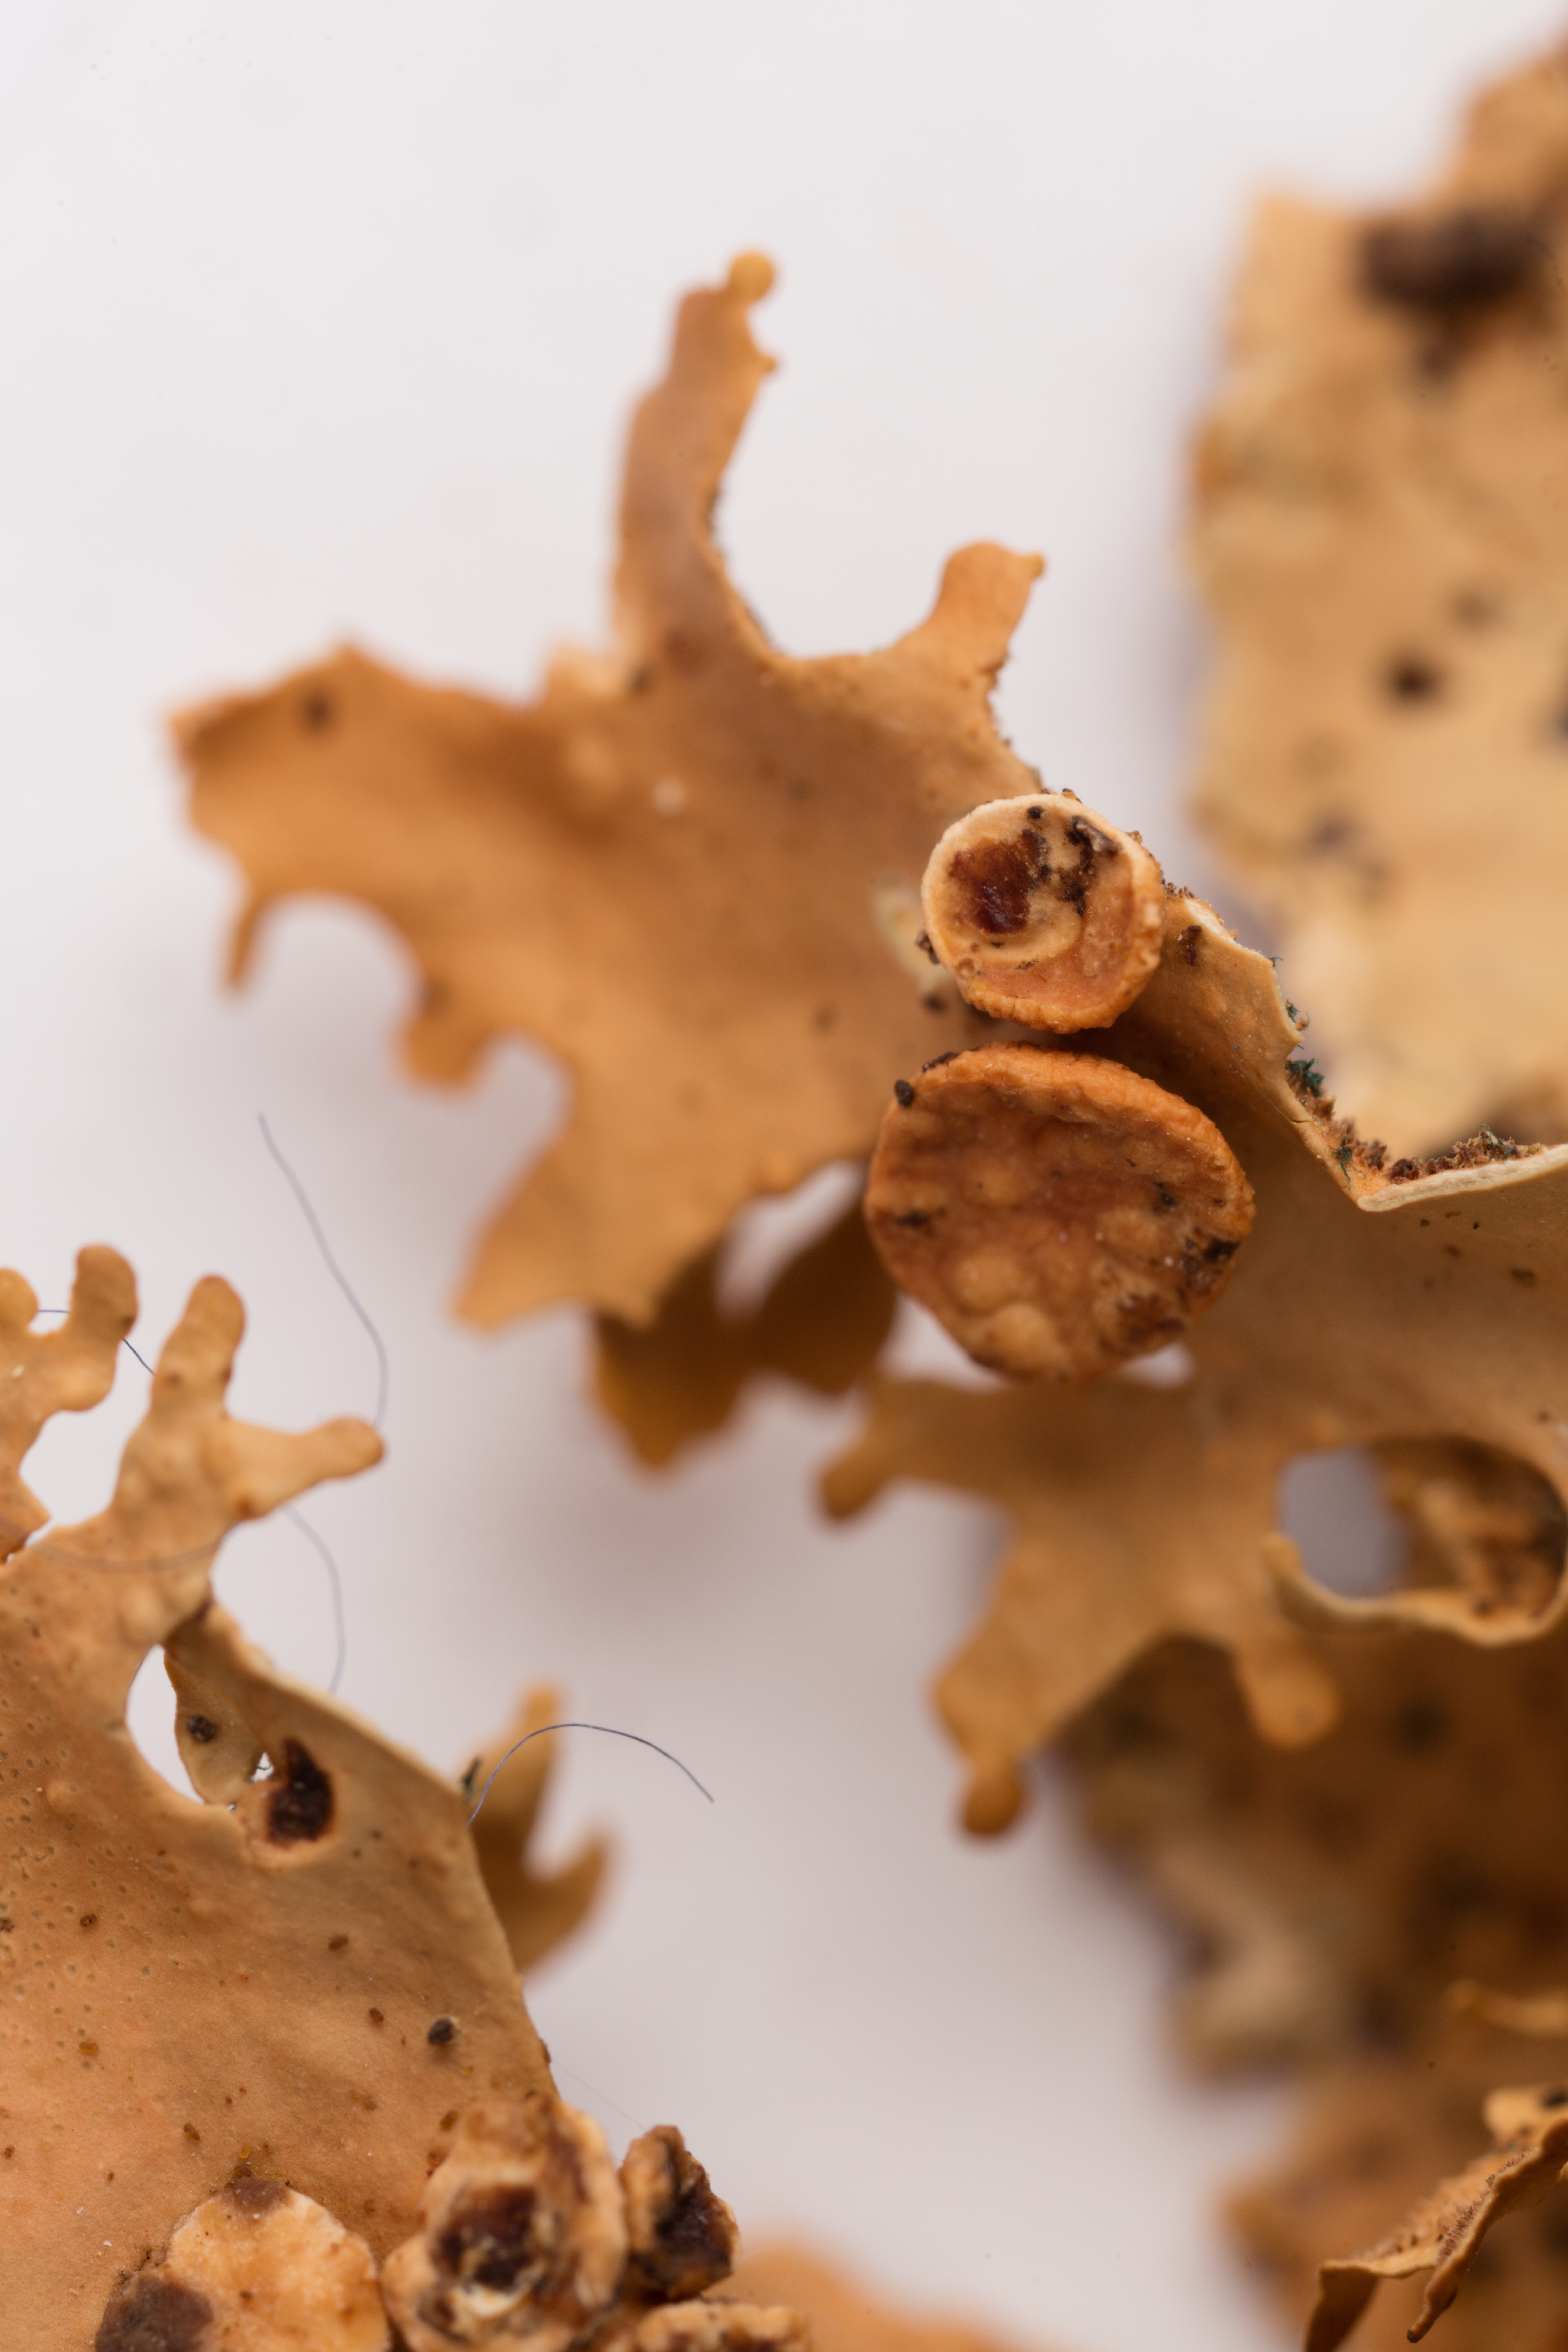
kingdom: Fungi
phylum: Ascomycota
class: Lecanoromycetes
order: Peltigerales
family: Lobariaceae
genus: Sticta
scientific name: Sticta subcaperata
